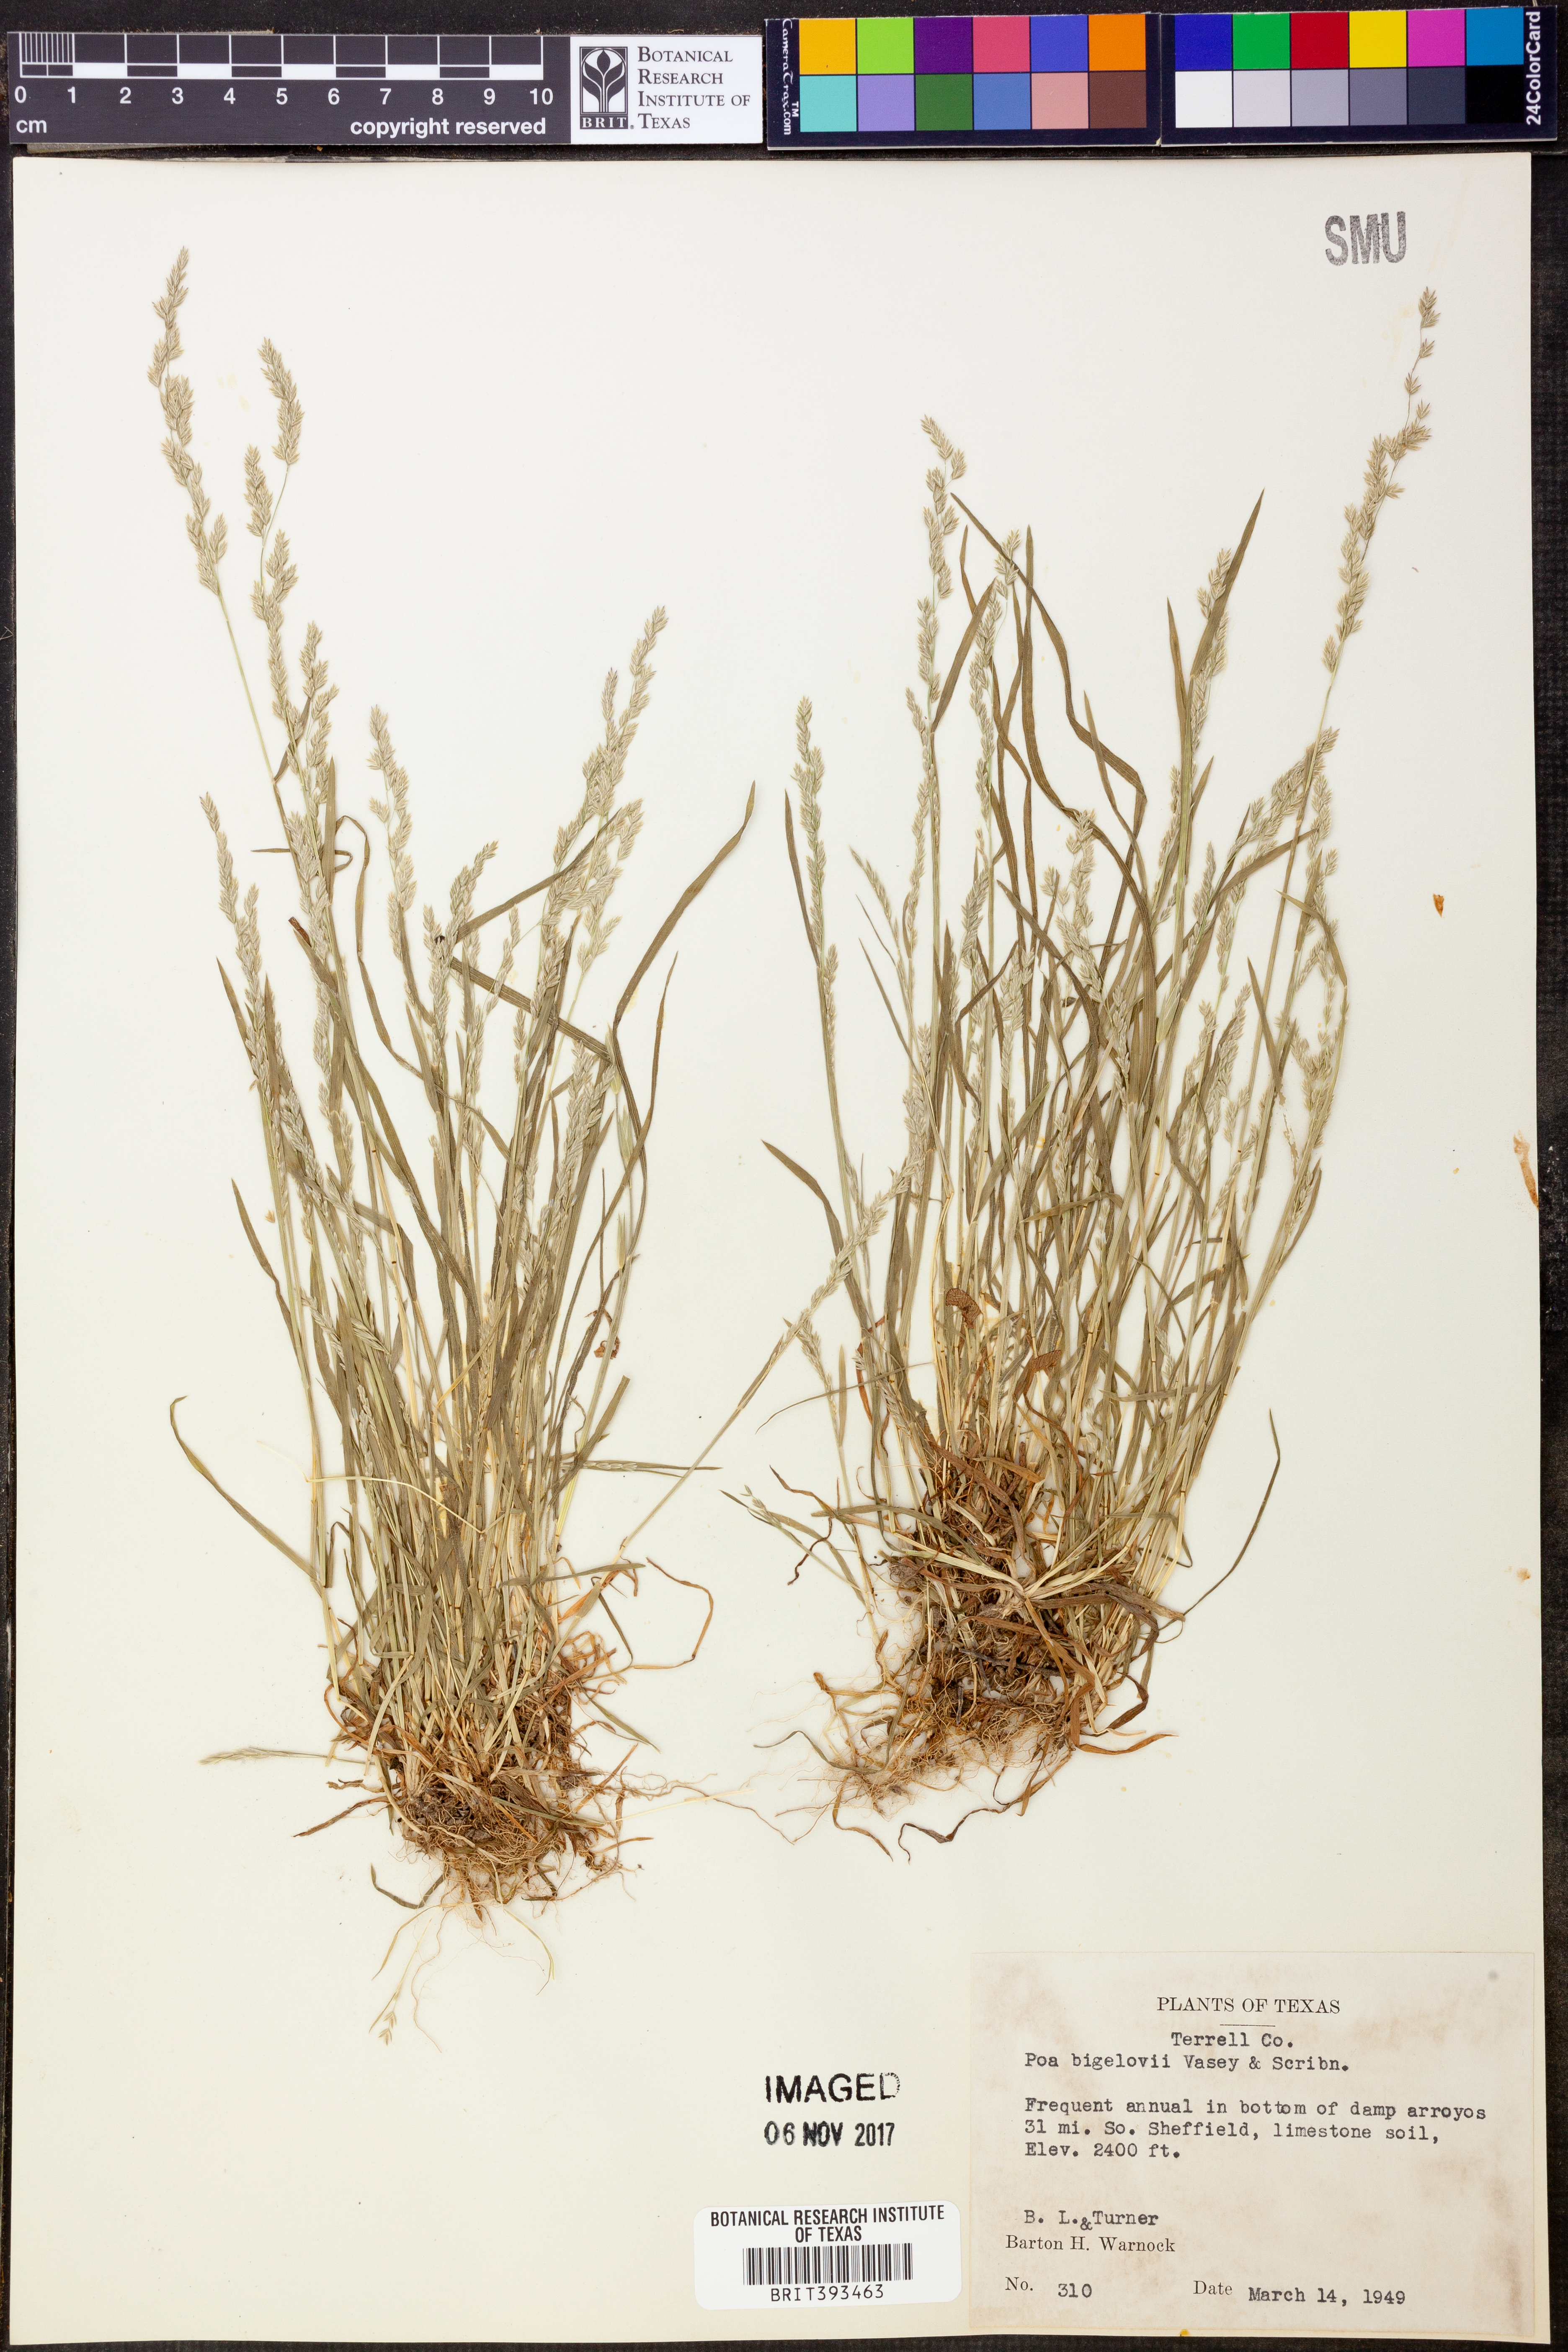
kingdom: Plantae
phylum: Tracheophyta
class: Liliopsida
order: Poales
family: Poaceae
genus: Poa
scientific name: Poa bigelovii
